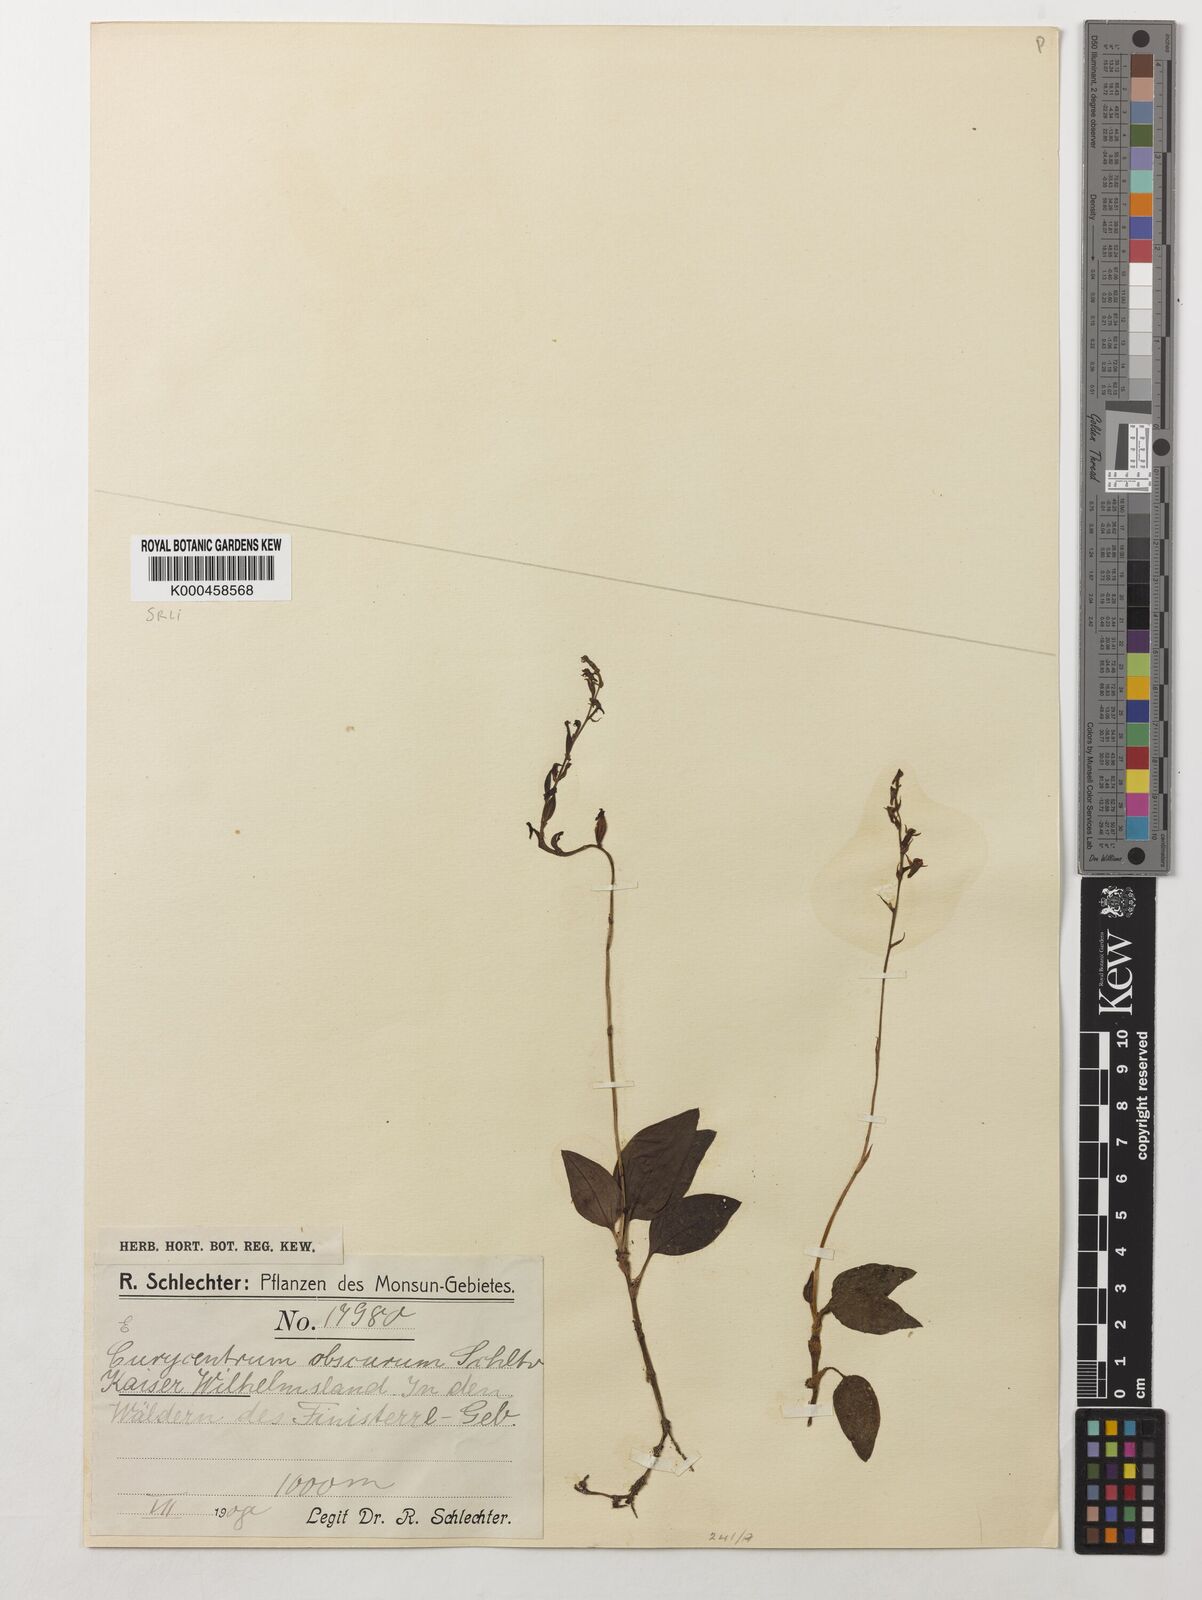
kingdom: Plantae
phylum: Tracheophyta
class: Liliopsida
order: Asparagales
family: Orchidaceae
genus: Eurycentrum
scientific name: Eurycentrum obscurum
